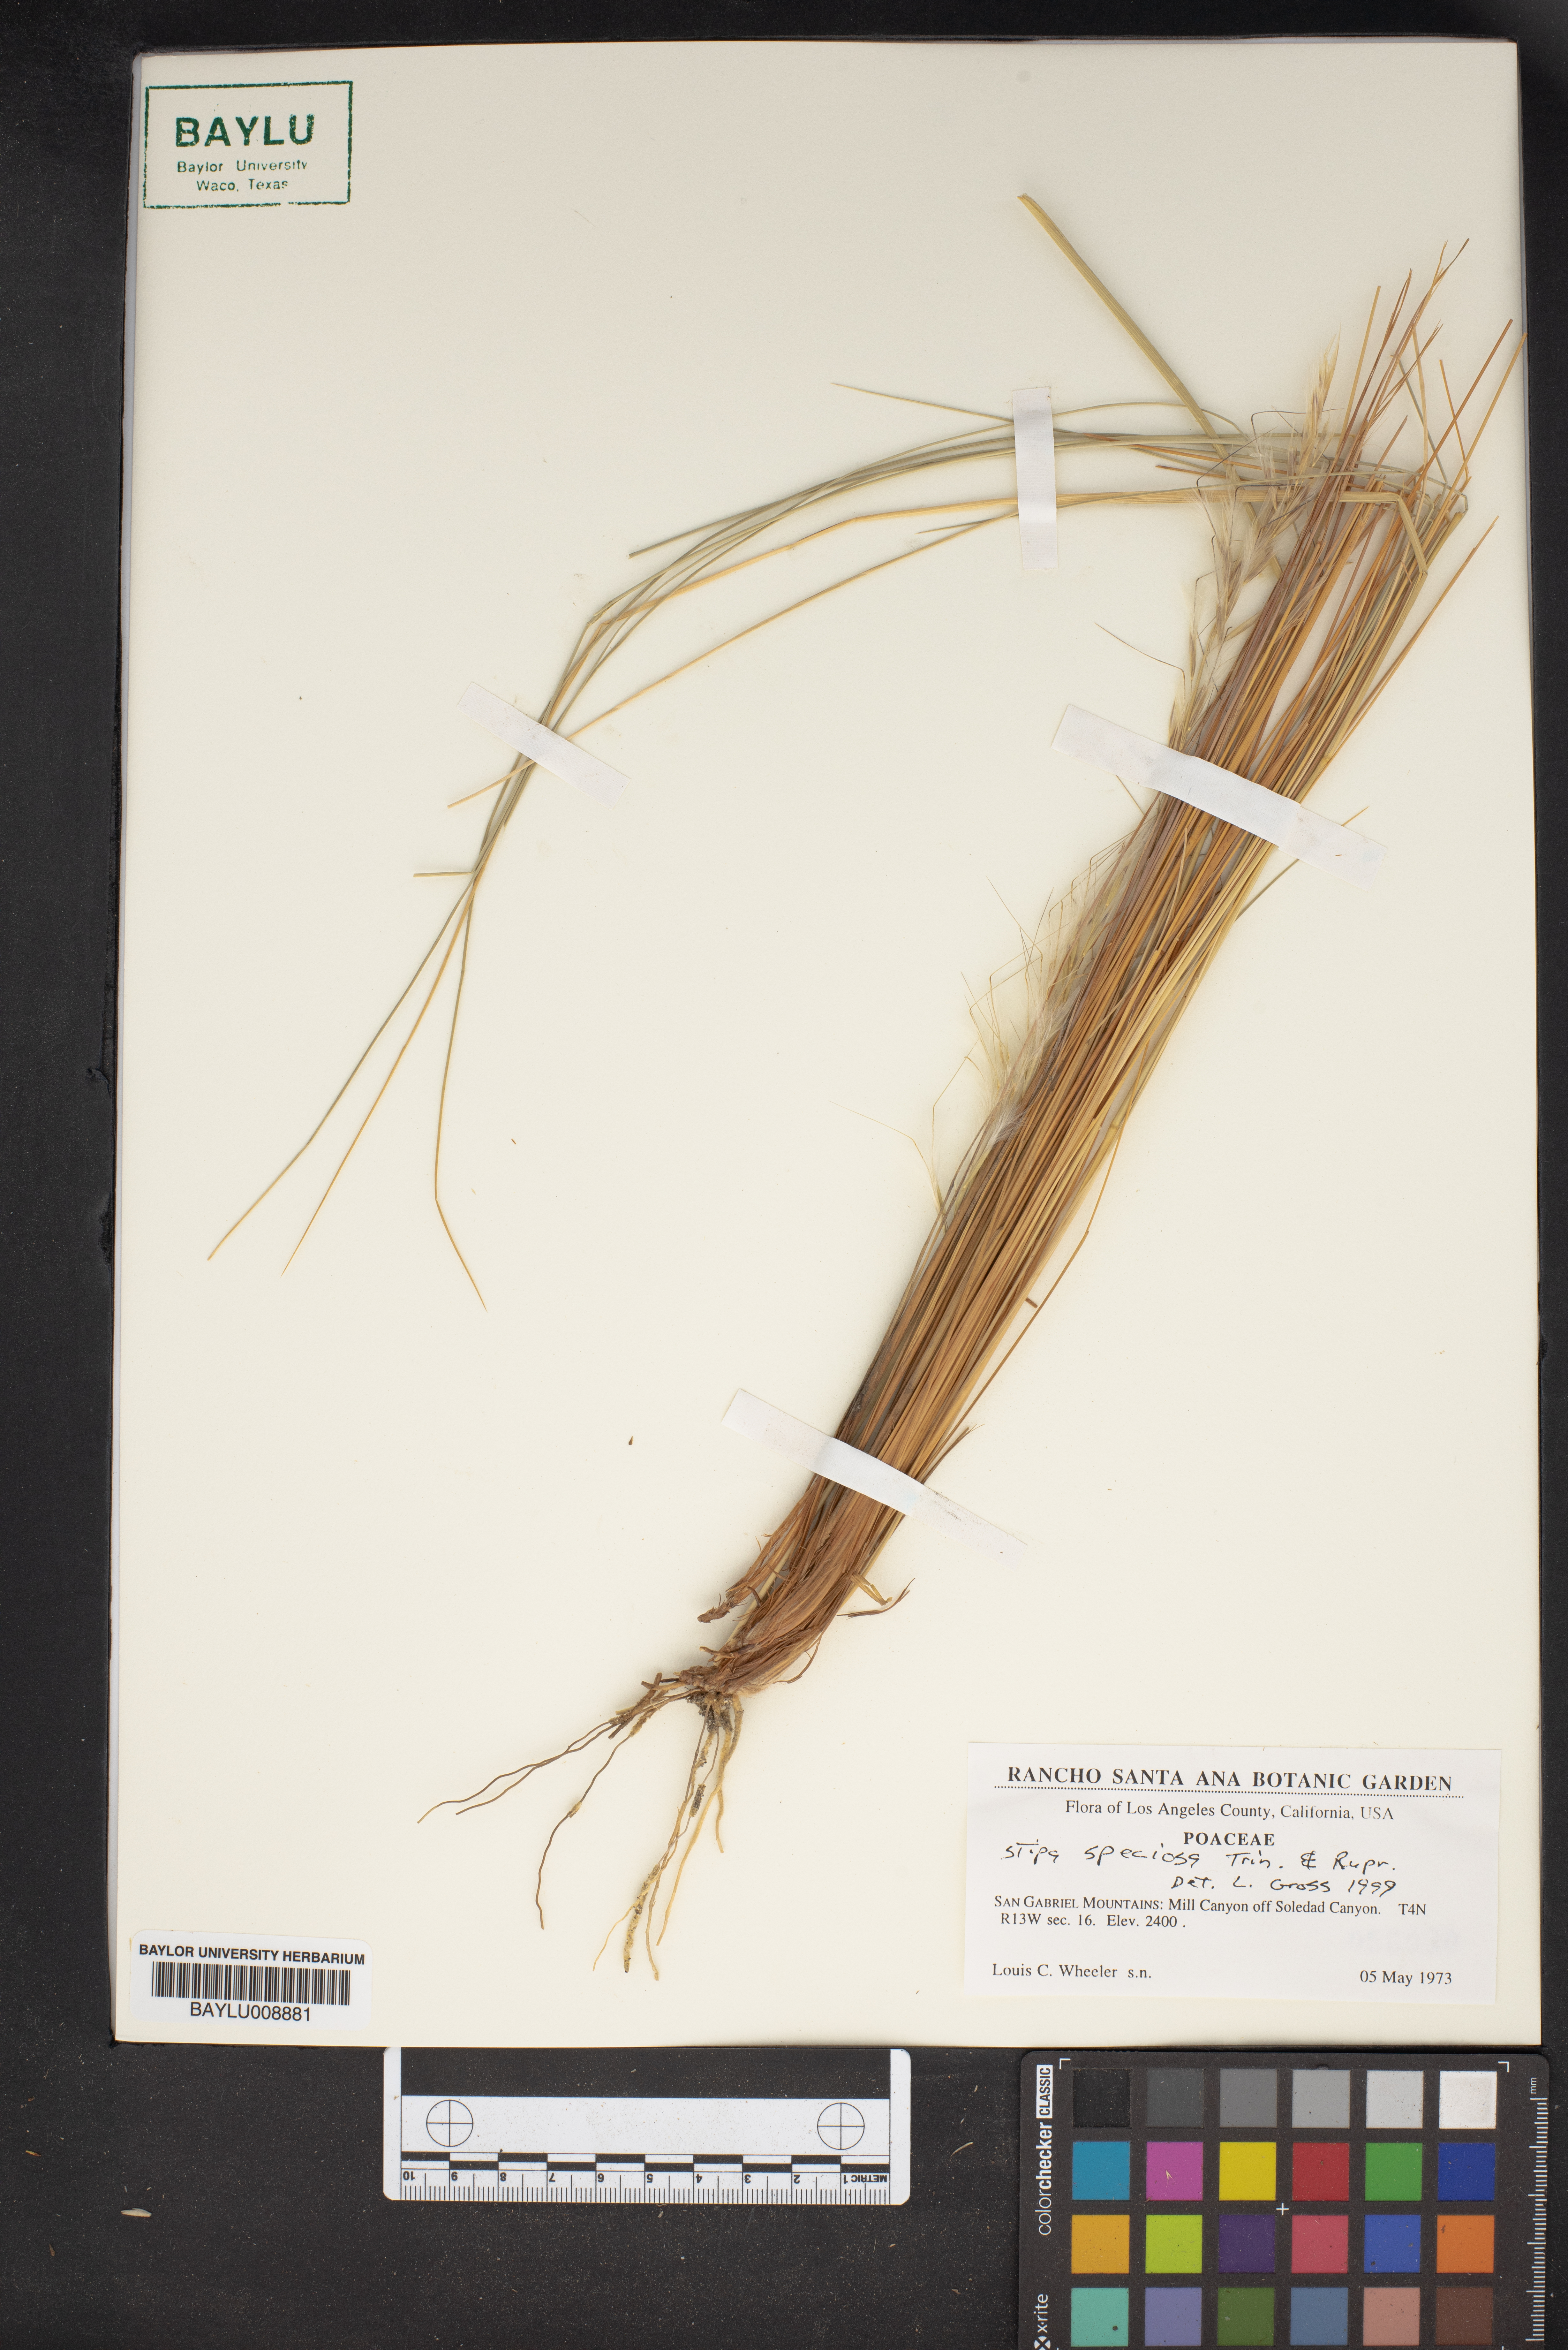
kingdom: Plantae
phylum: Tracheophyta
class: Liliopsida
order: Poales
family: Poaceae
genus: Pappostipa
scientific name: Pappostipa speciosa
